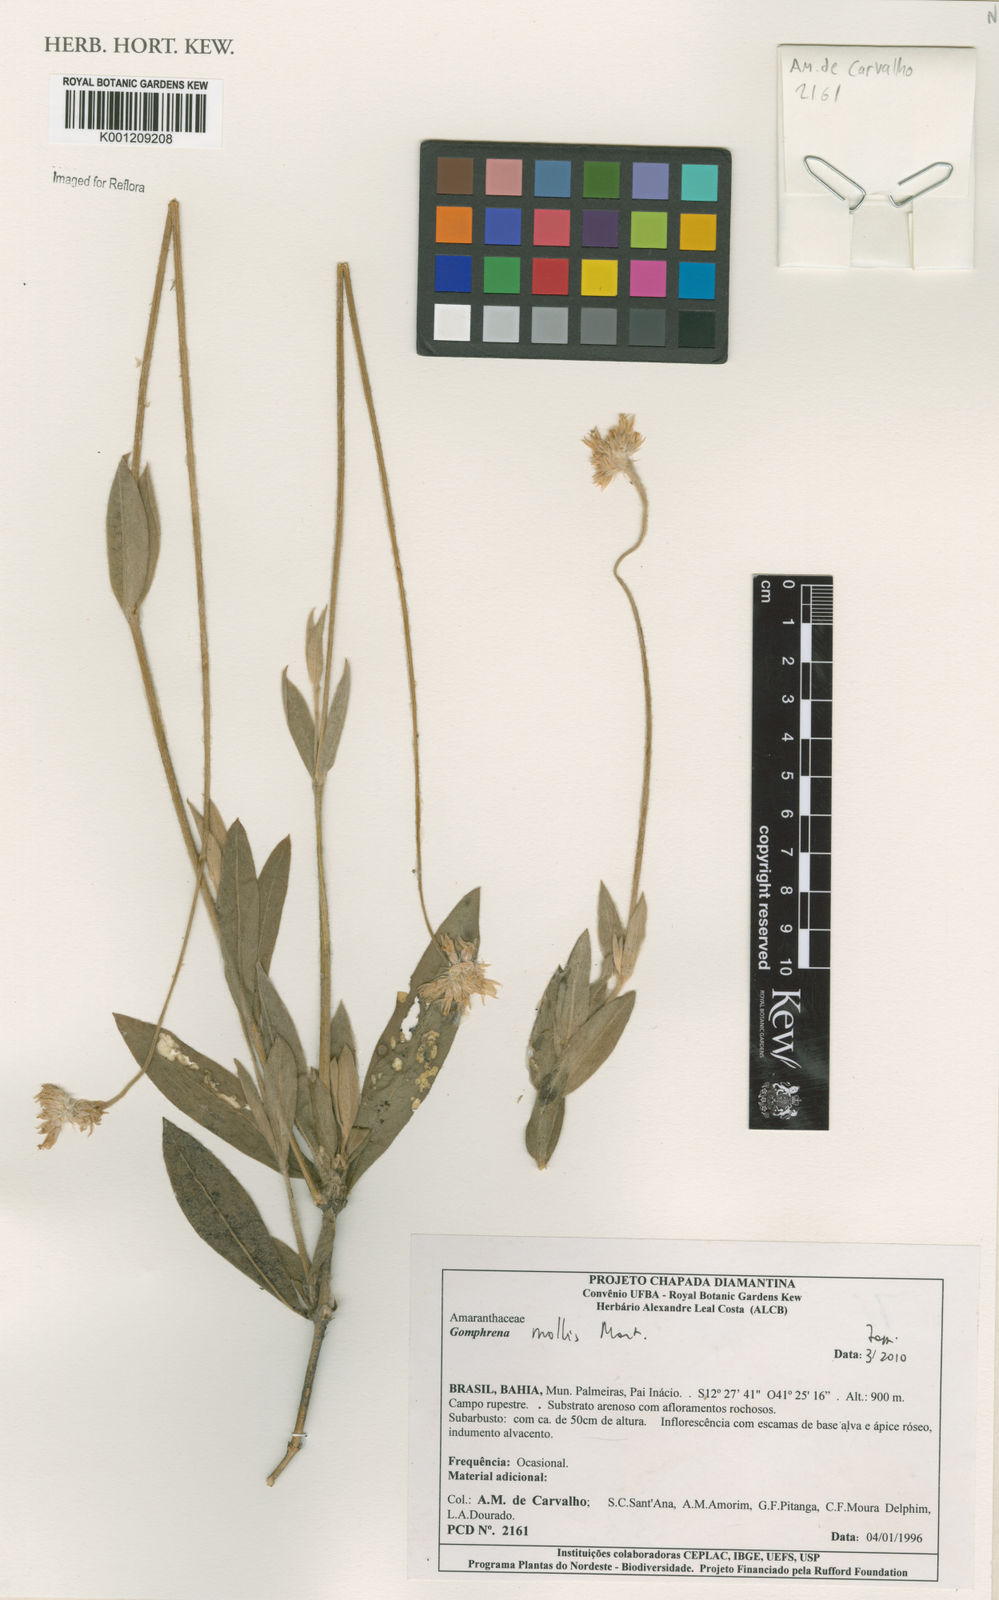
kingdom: Plantae
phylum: Tracheophyta
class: Magnoliopsida
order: Caryophyllales
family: Amaranthaceae
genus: Gomphrena
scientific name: Gomphrena mollis
